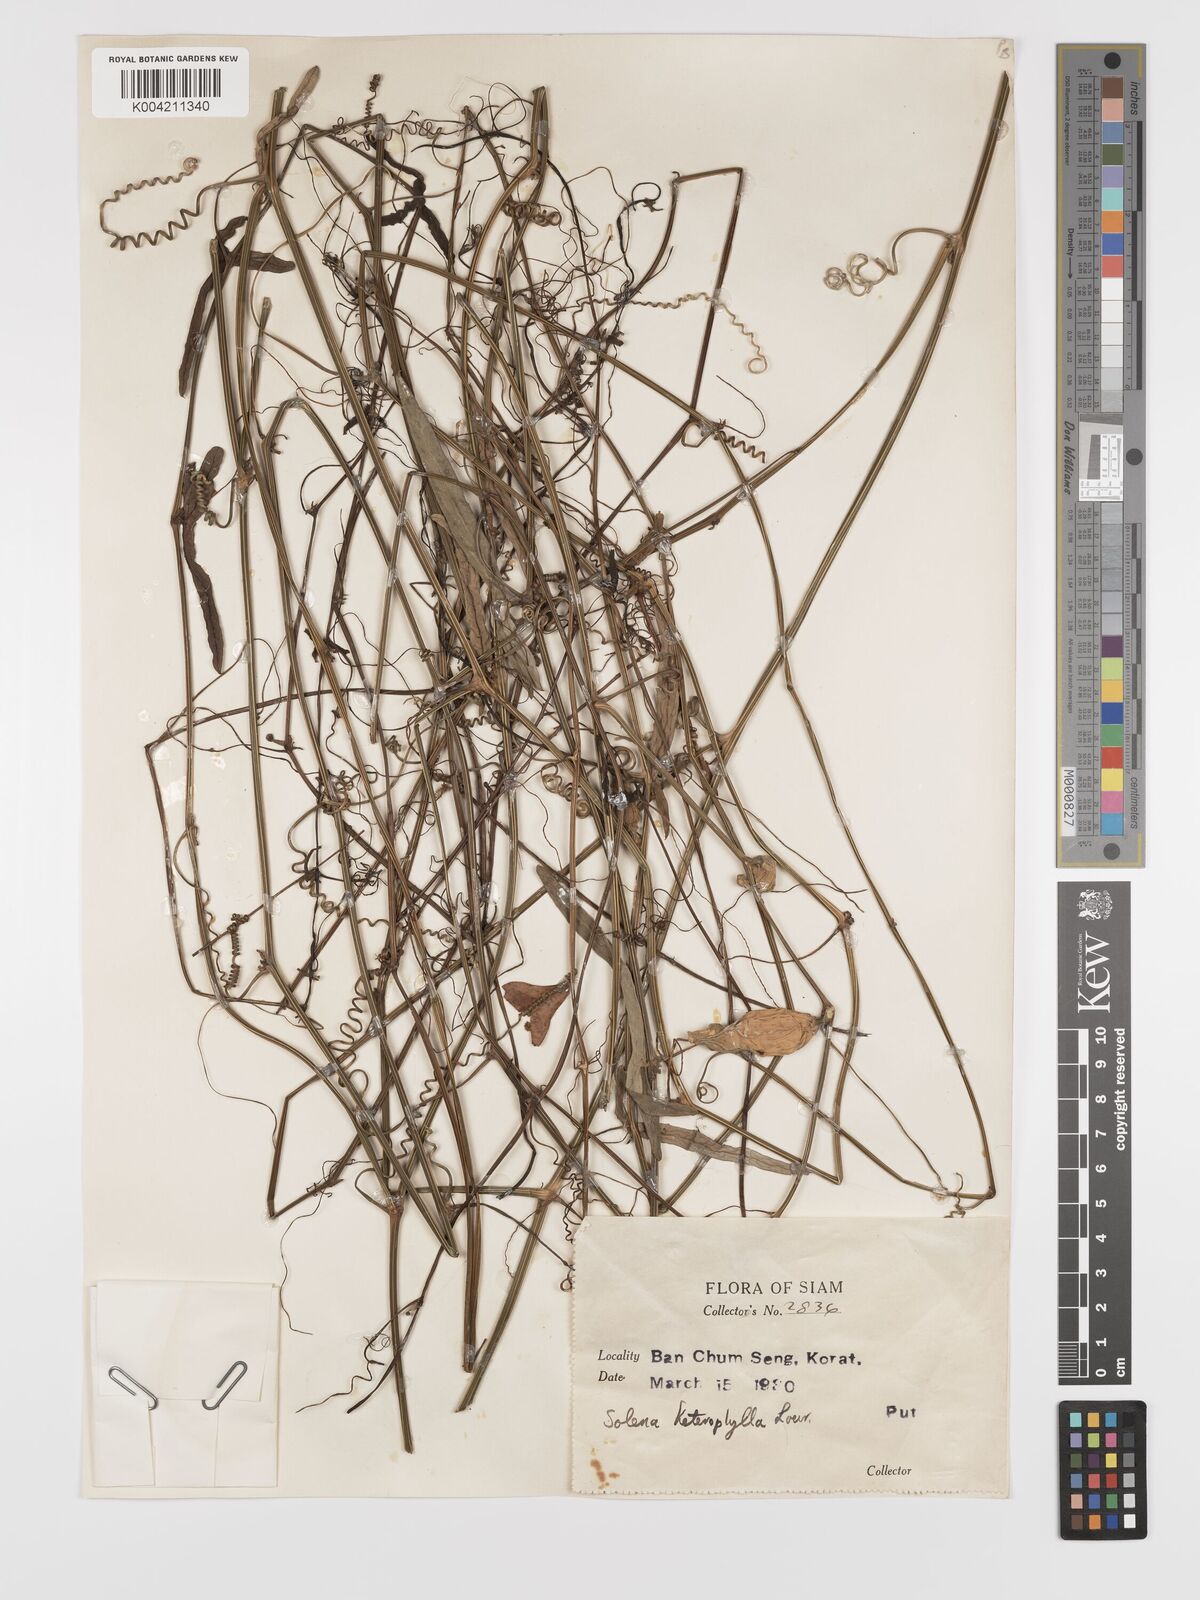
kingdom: Plantae
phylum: Tracheophyta
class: Magnoliopsida
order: Cucurbitales
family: Cucurbitaceae
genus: Solena
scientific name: Solena amplexicaulis
